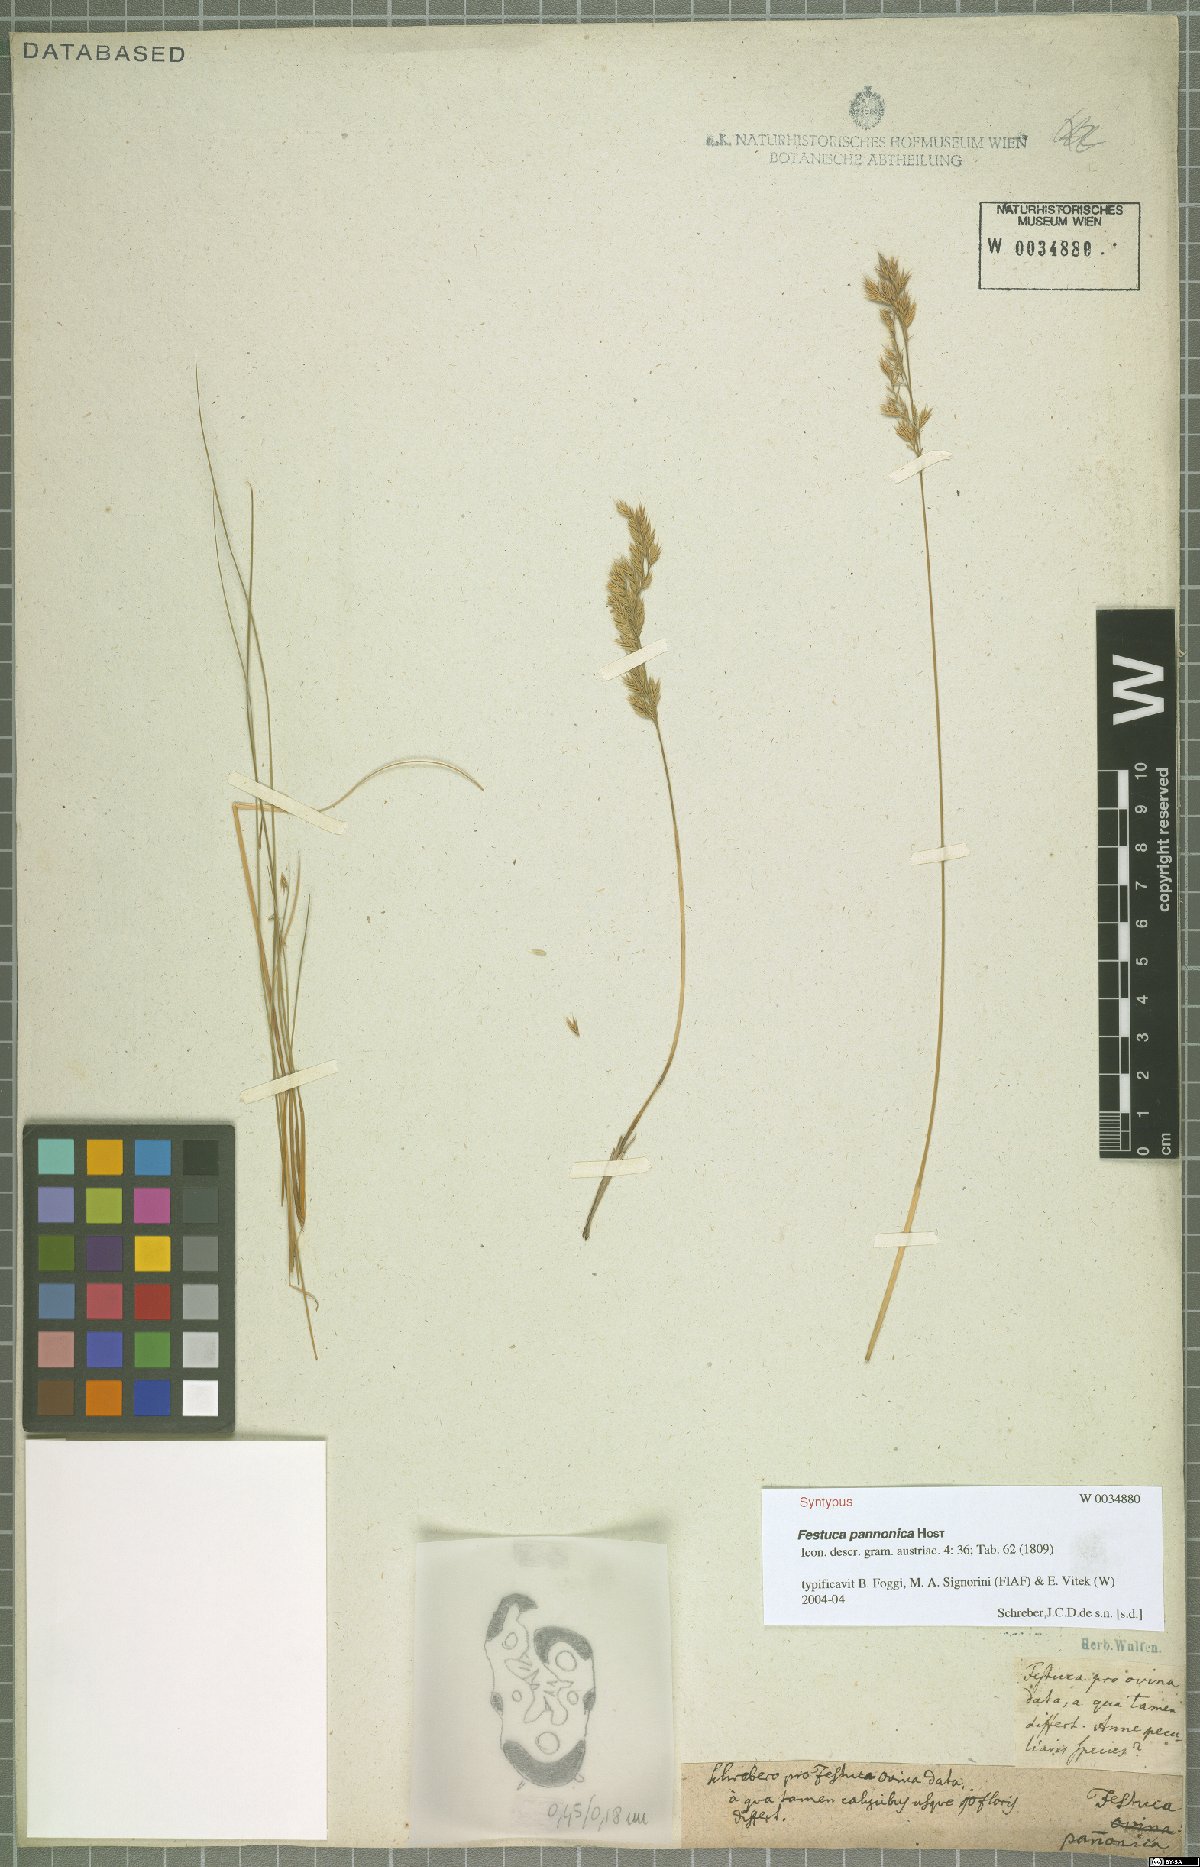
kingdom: Plantae
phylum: Tracheophyta
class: Liliopsida
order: Poales
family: Poaceae
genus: Festuca
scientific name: Festuca valesiaca
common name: Volga fescue
